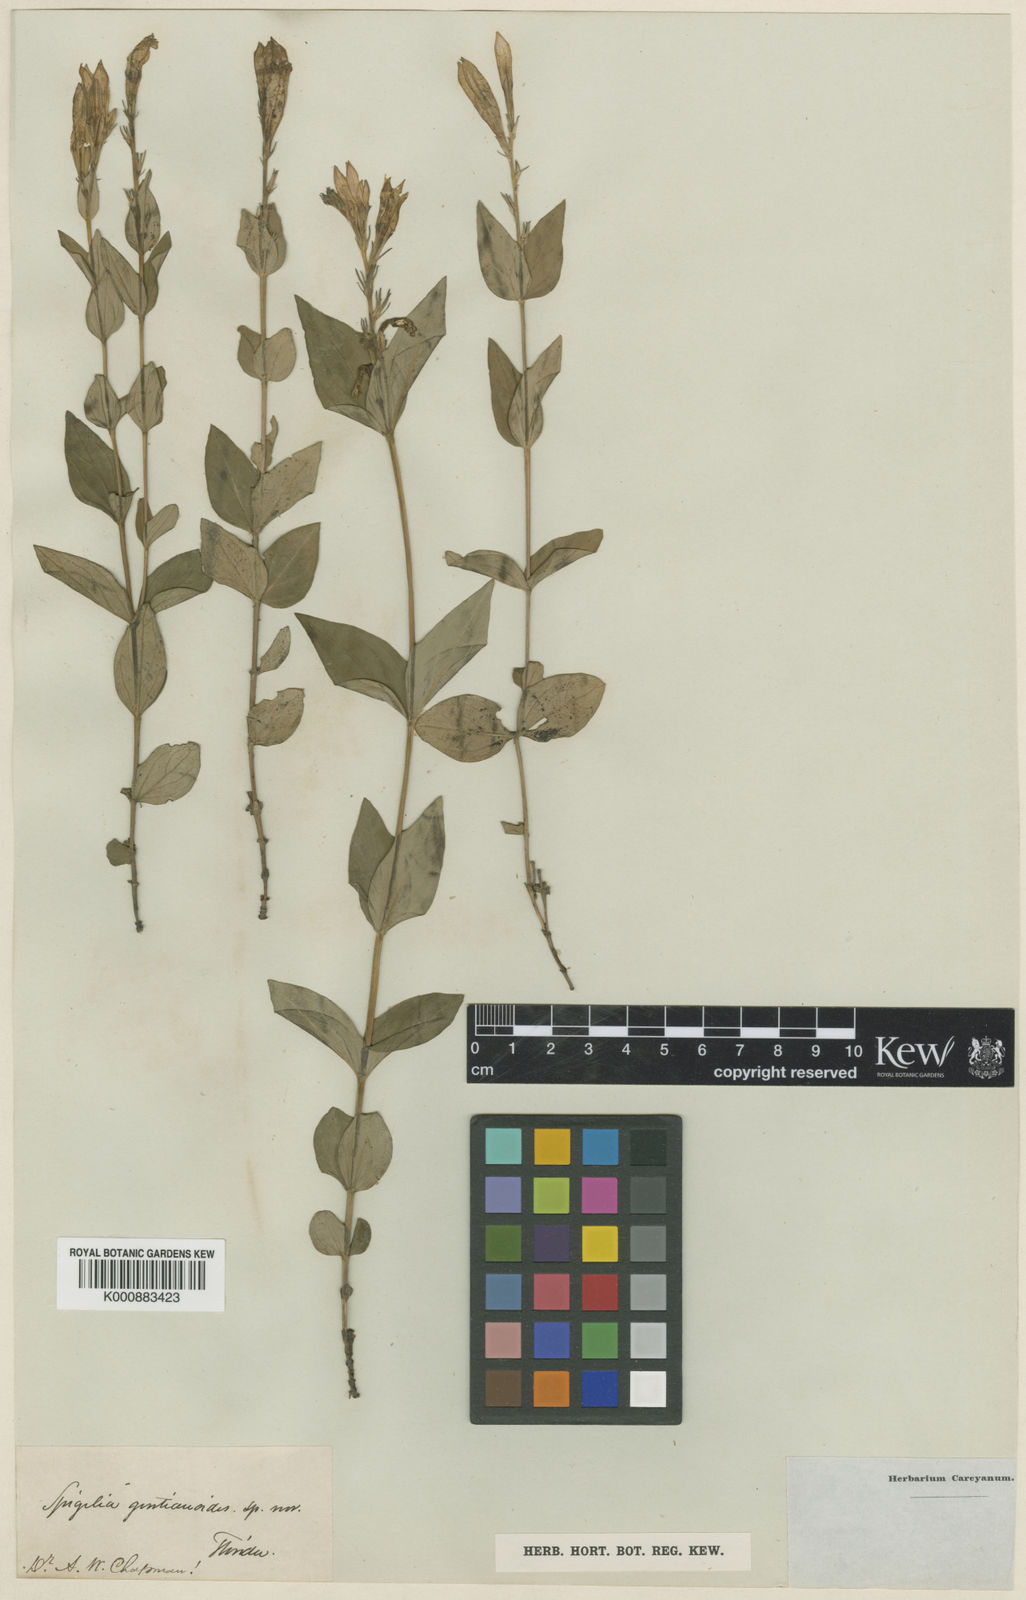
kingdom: Plantae
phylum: Tracheophyta
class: Magnoliopsida
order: Gentianales
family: Loganiaceae
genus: Spigelia
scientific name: Spigelia gentianoides
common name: Gentian pinkroot
